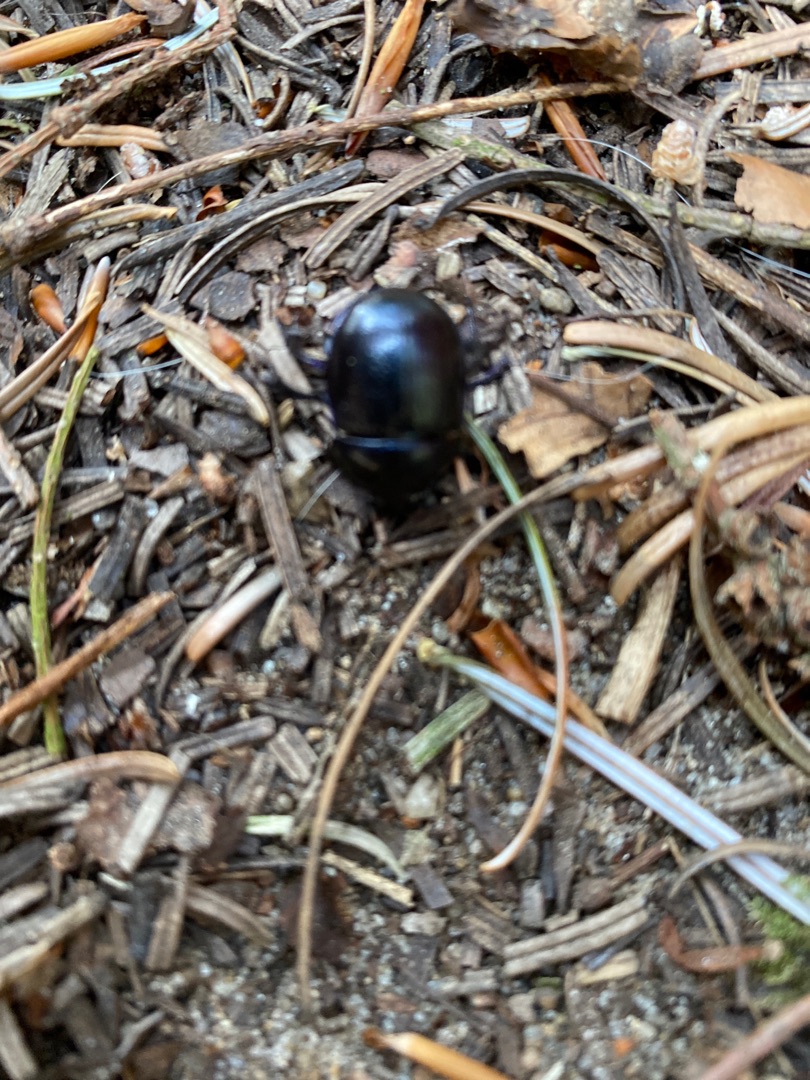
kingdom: Animalia
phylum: Arthropoda
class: Insecta
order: Coleoptera
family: Geotrupidae
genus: Anoplotrupes
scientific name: Anoplotrupes stercorosus
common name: Skovskarnbasse
